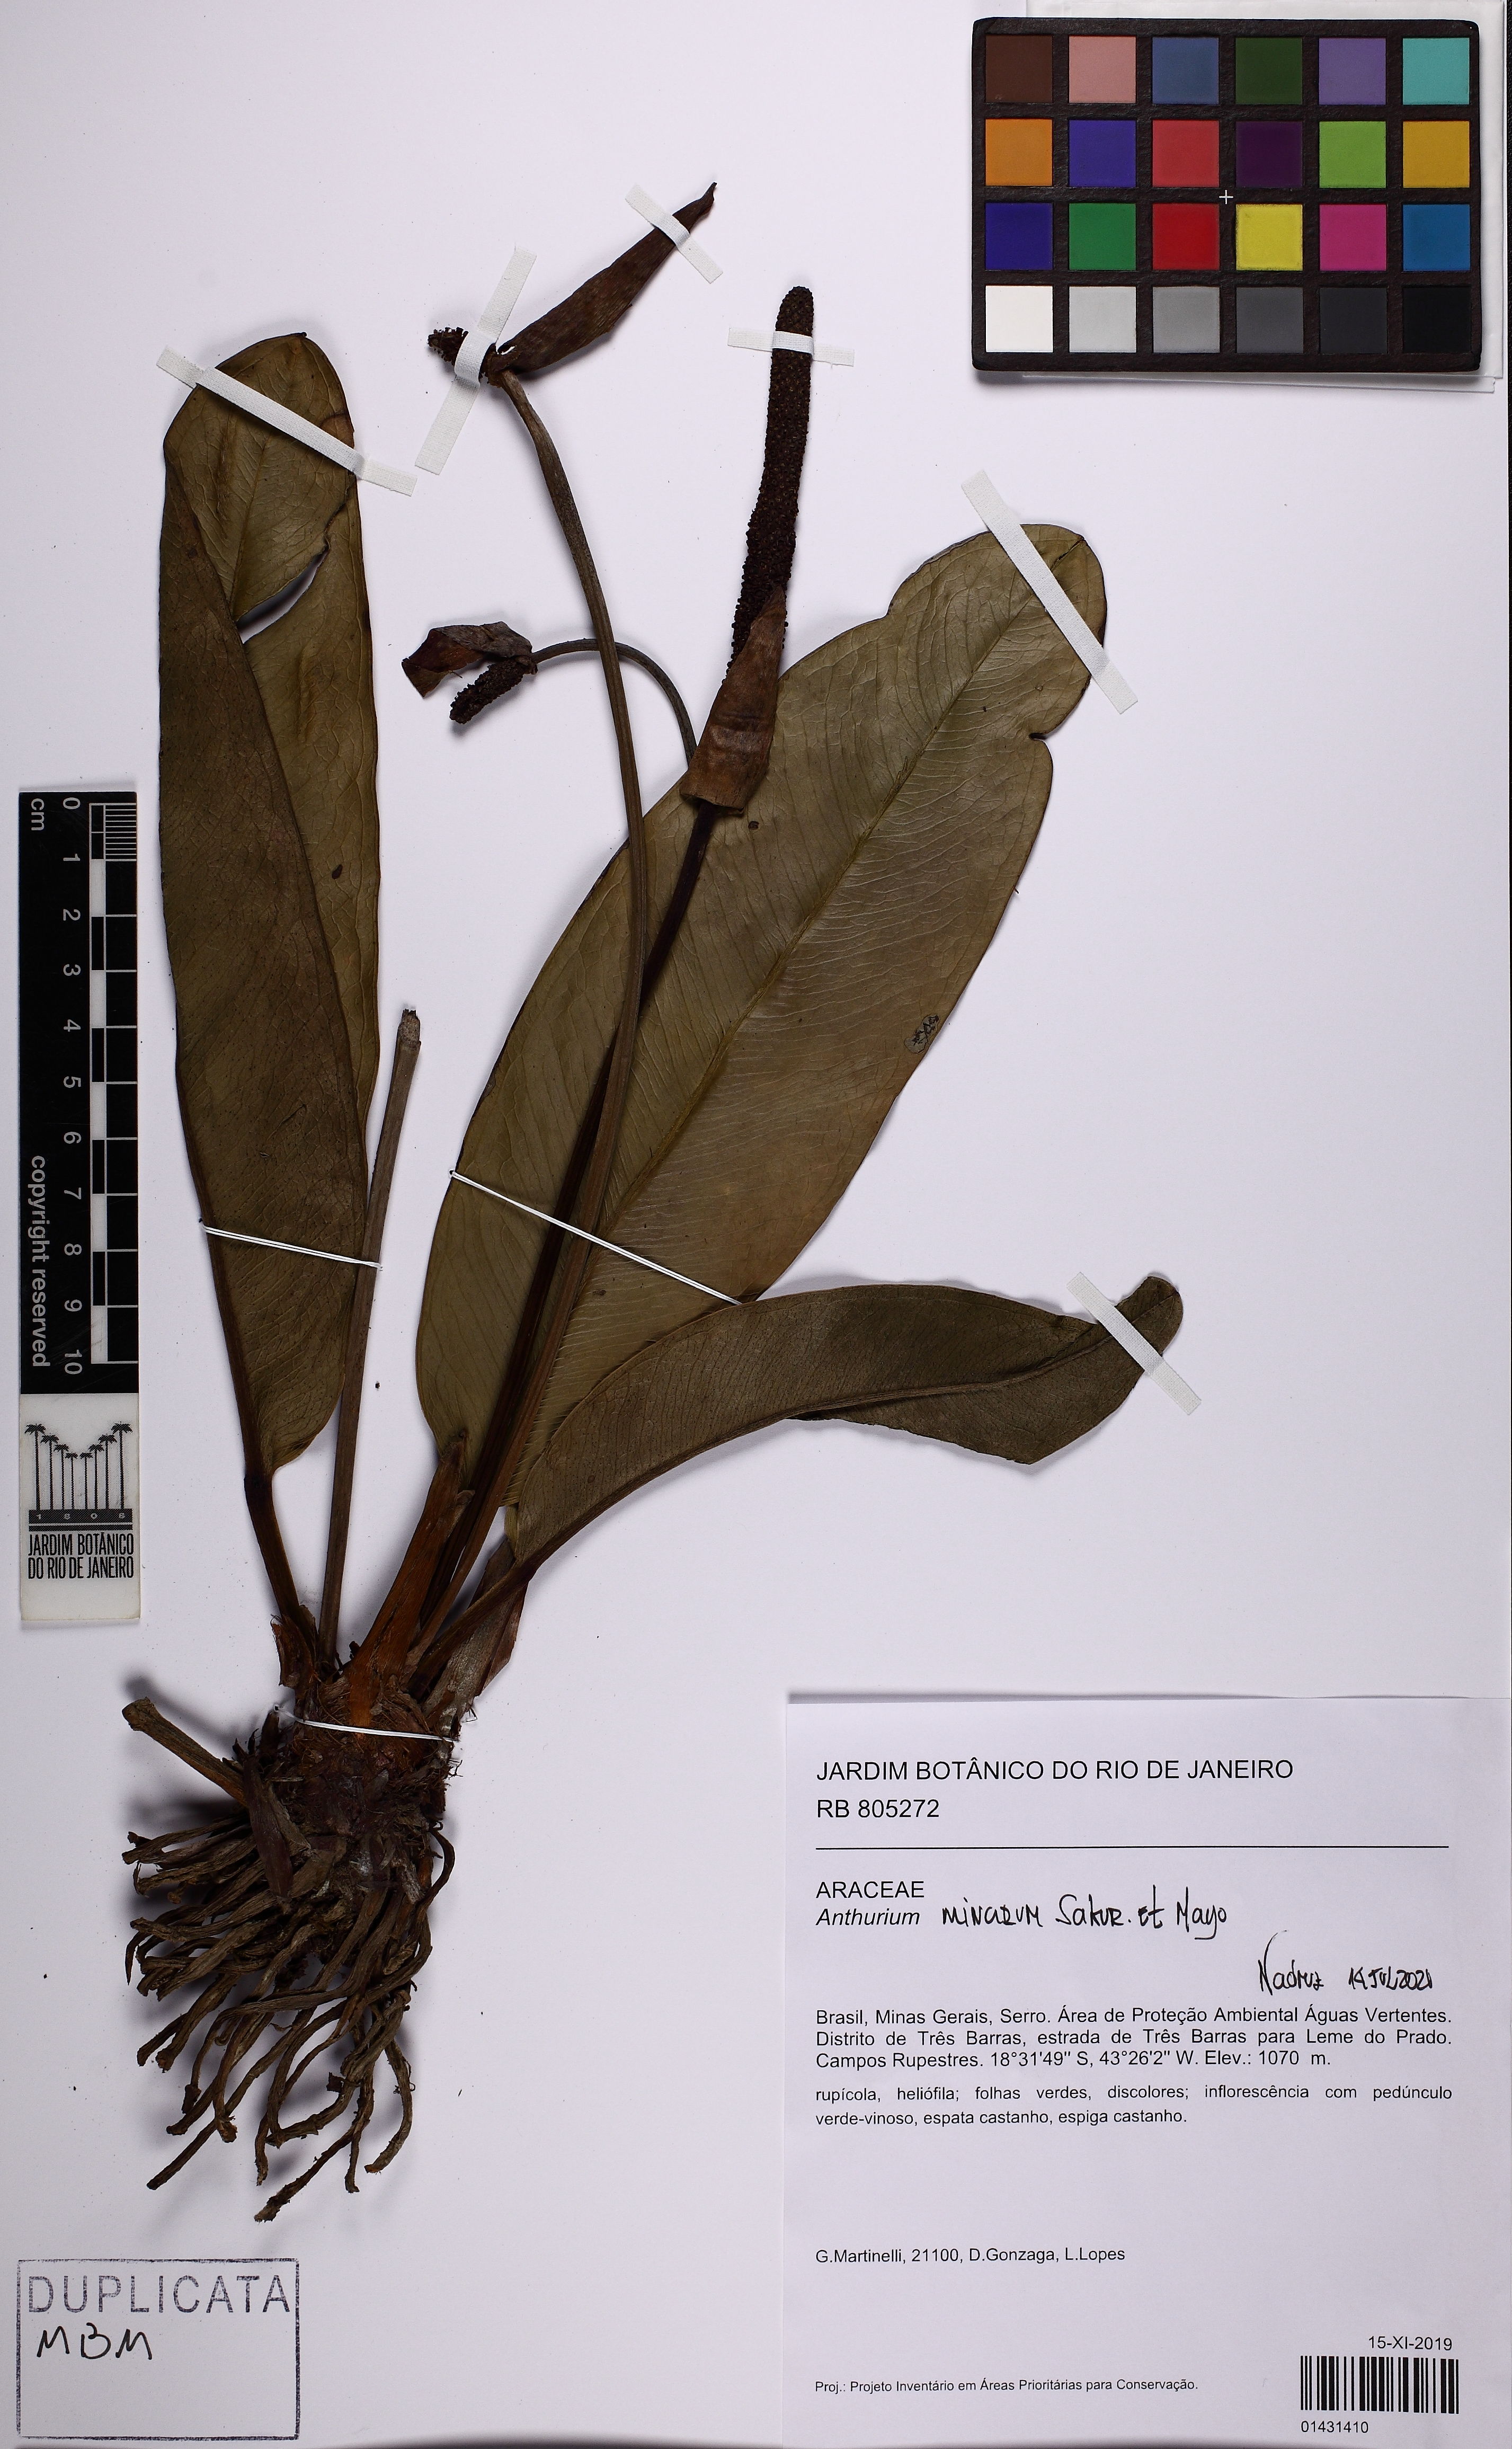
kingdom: Plantae
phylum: Tracheophyta
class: Liliopsida
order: Alismatales
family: Araceae
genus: Anthurium
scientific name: Anthurium minarum
